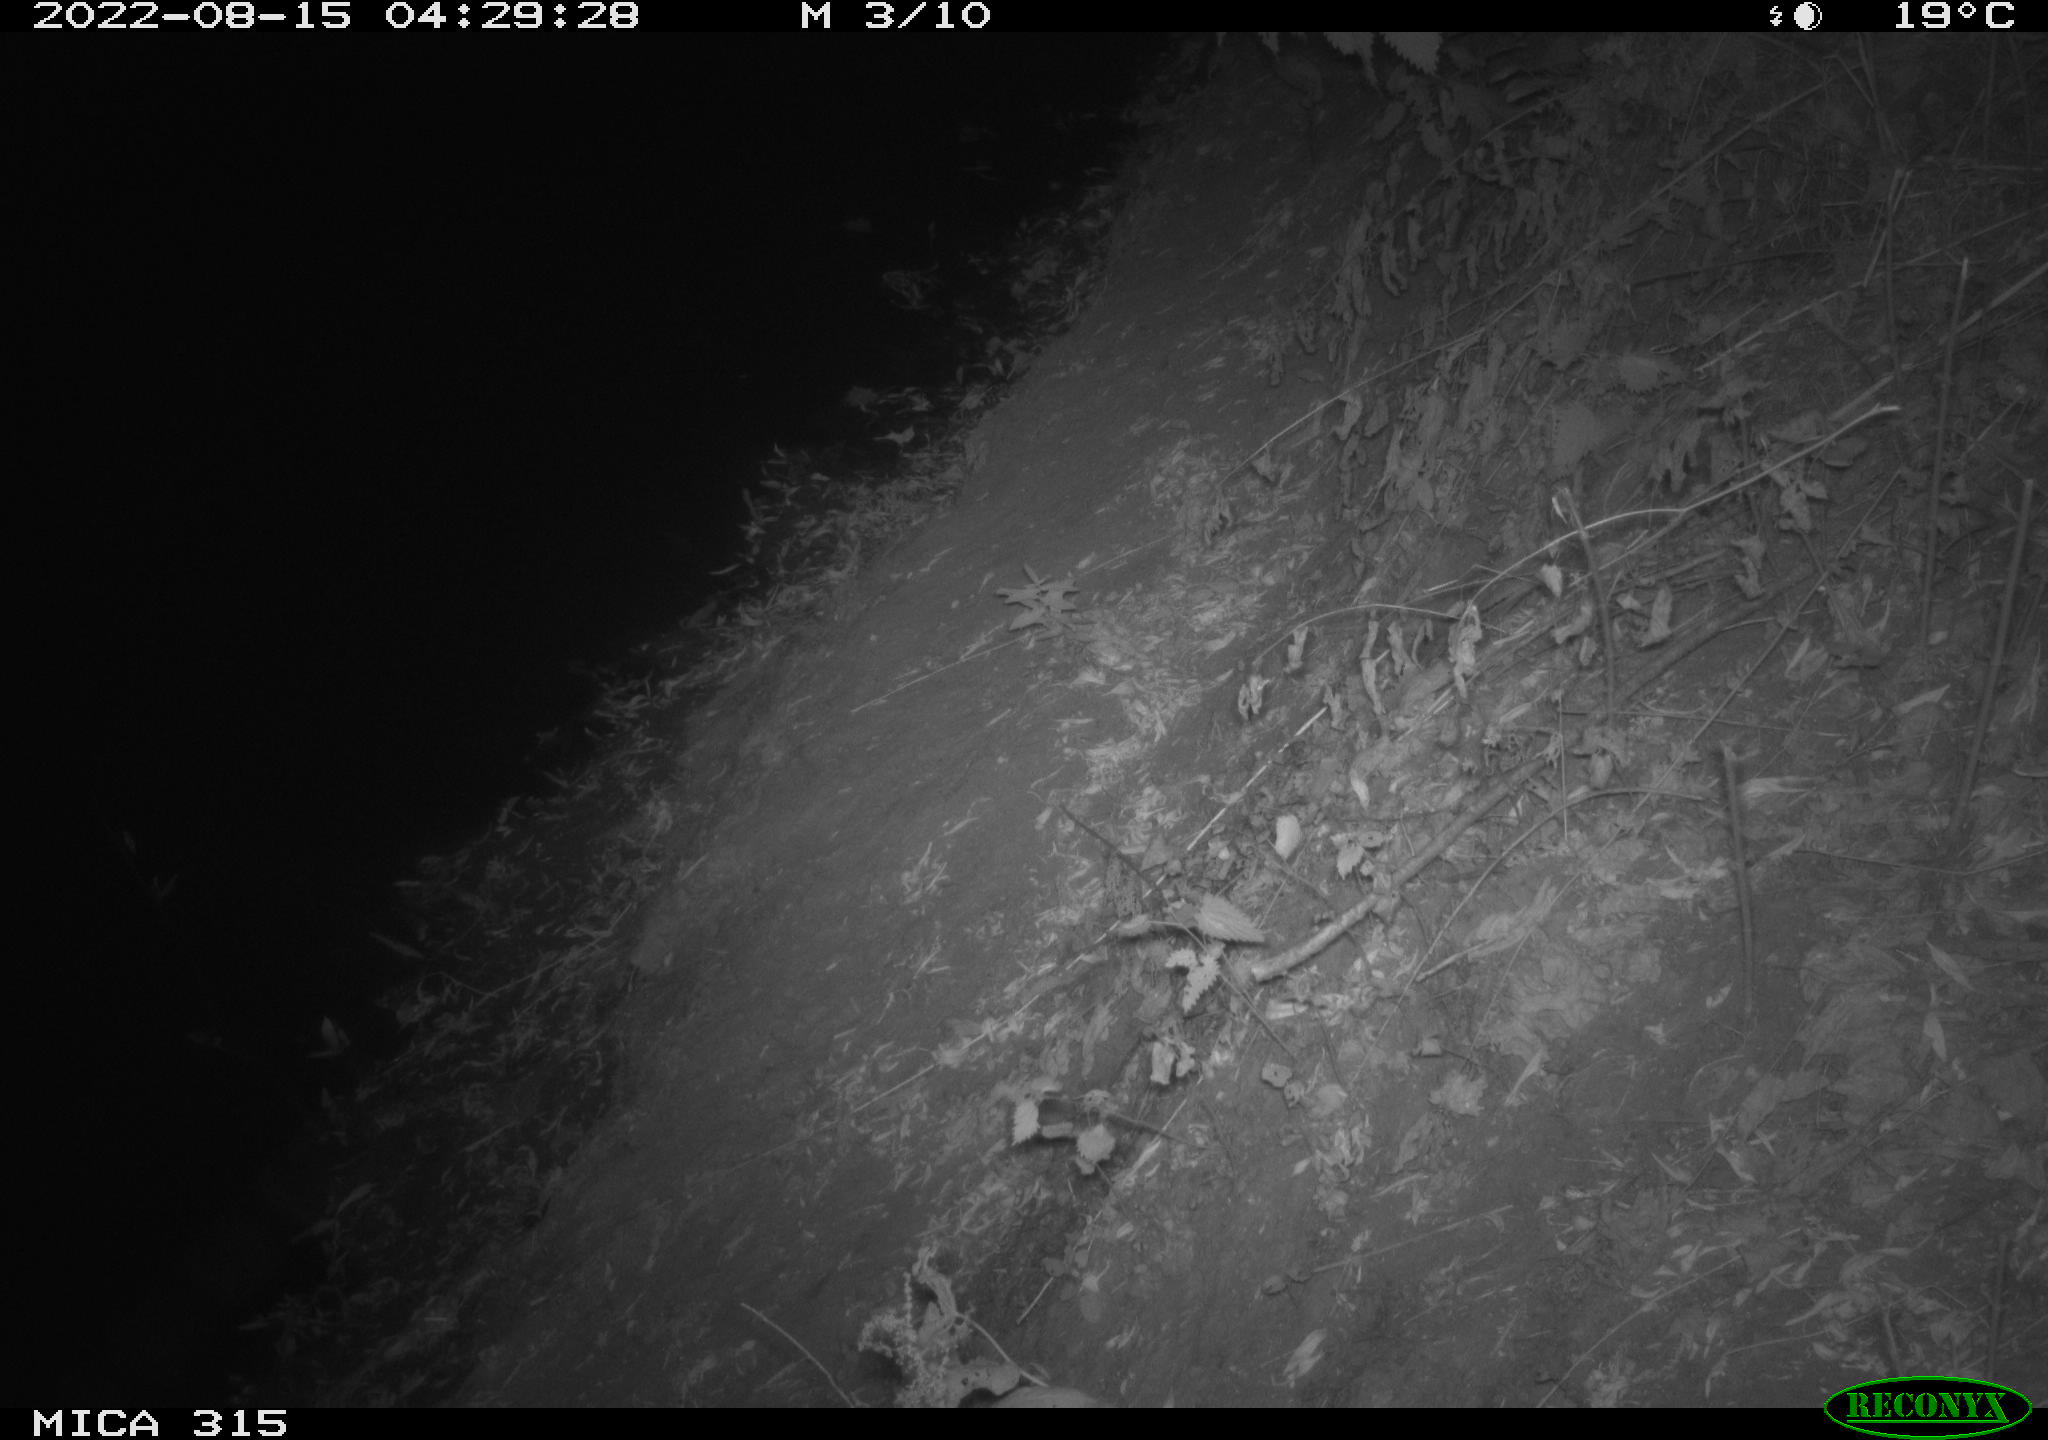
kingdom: Animalia
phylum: Chordata
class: Mammalia
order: Carnivora
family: Canidae
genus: Vulpes
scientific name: Vulpes vulpes
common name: Red fox
